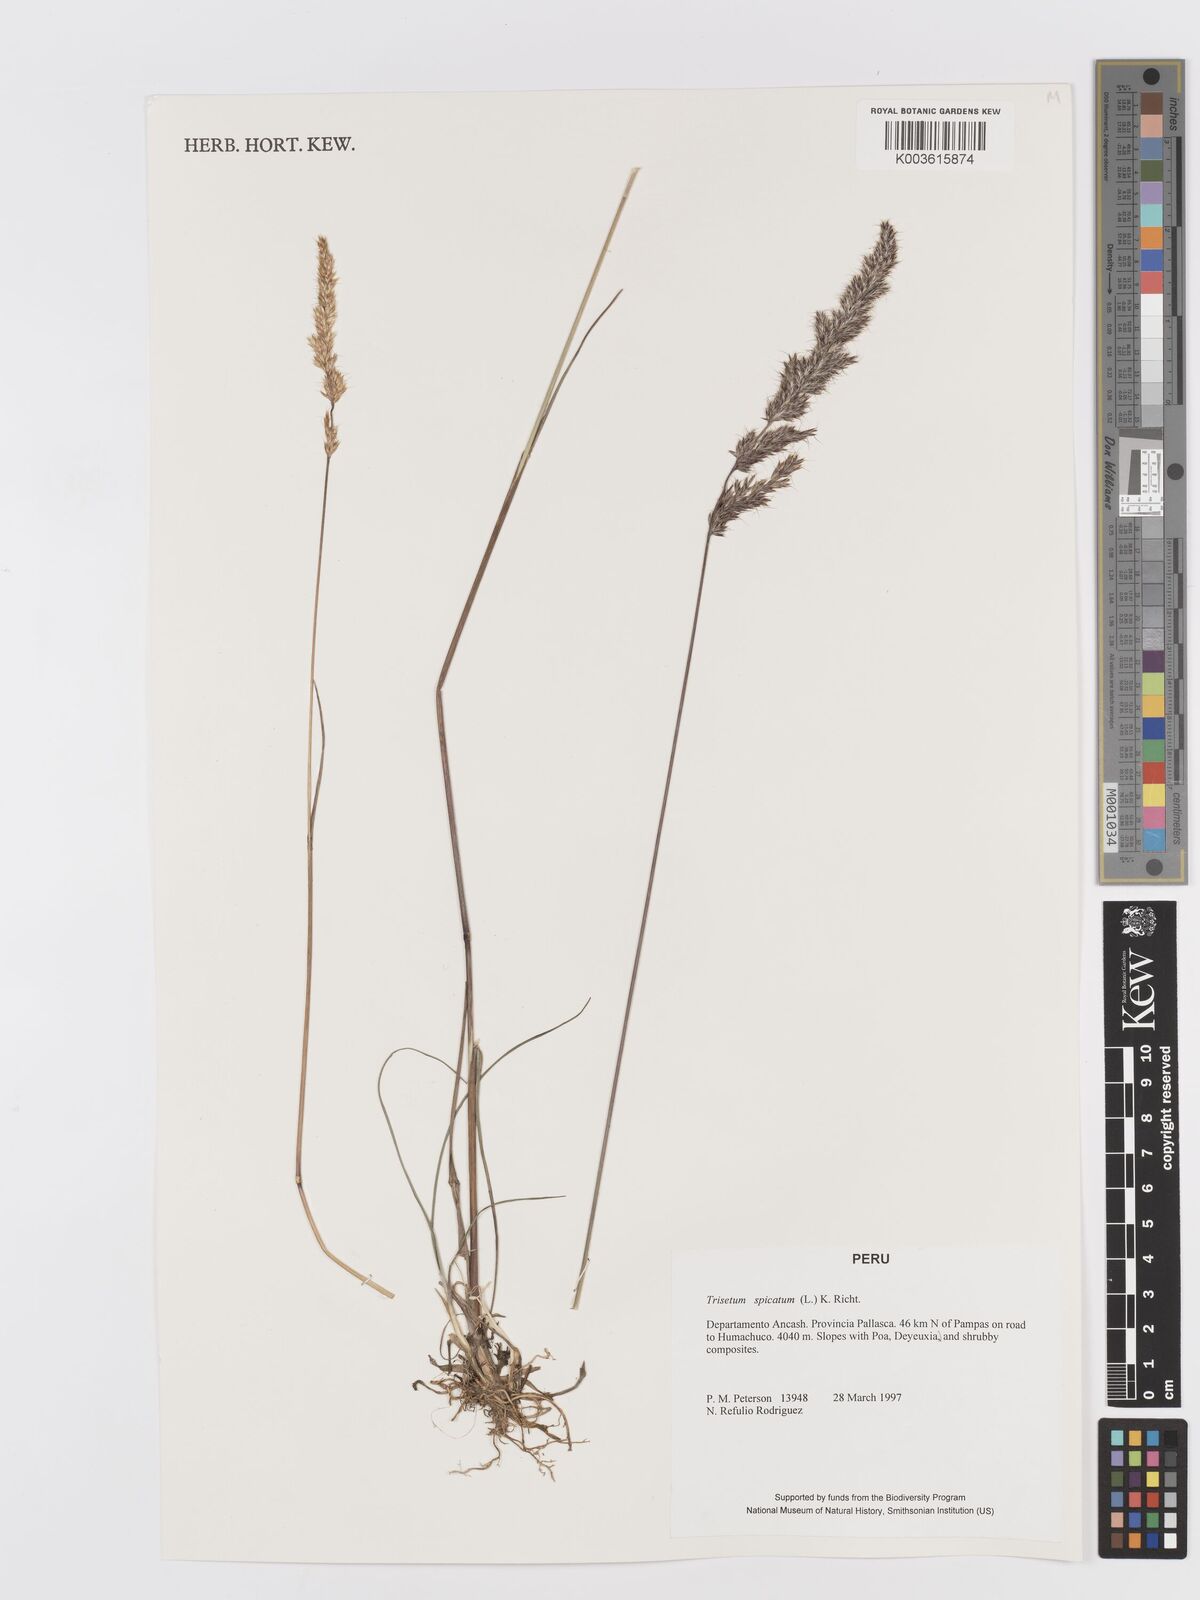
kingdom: Plantae
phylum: Tracheophyta
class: Liliopsida
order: Poales
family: Poaceae
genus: Koeleria
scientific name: Koeleria spicata
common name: Mountain trisetum
